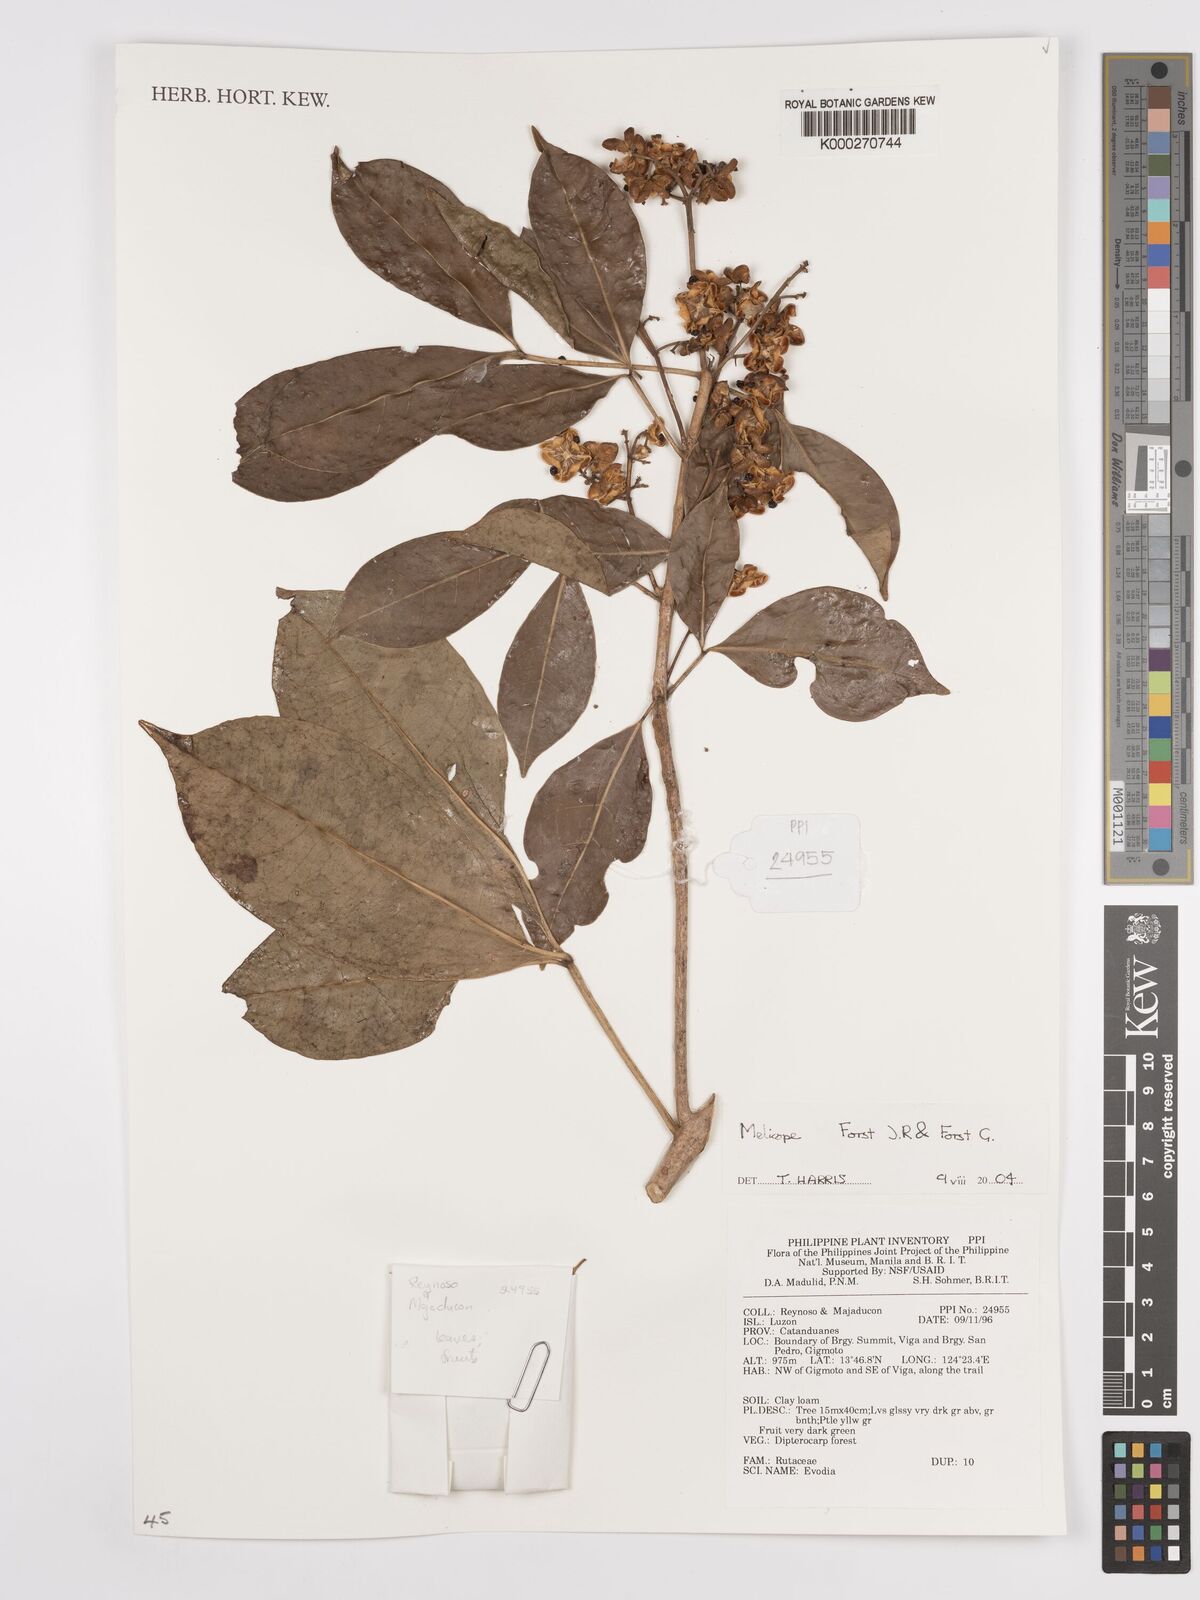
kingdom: Plantae
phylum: Tracheophyta
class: Magnoliopsida
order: Sapindales
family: Rutaceae
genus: Melicope
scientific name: Melicope
